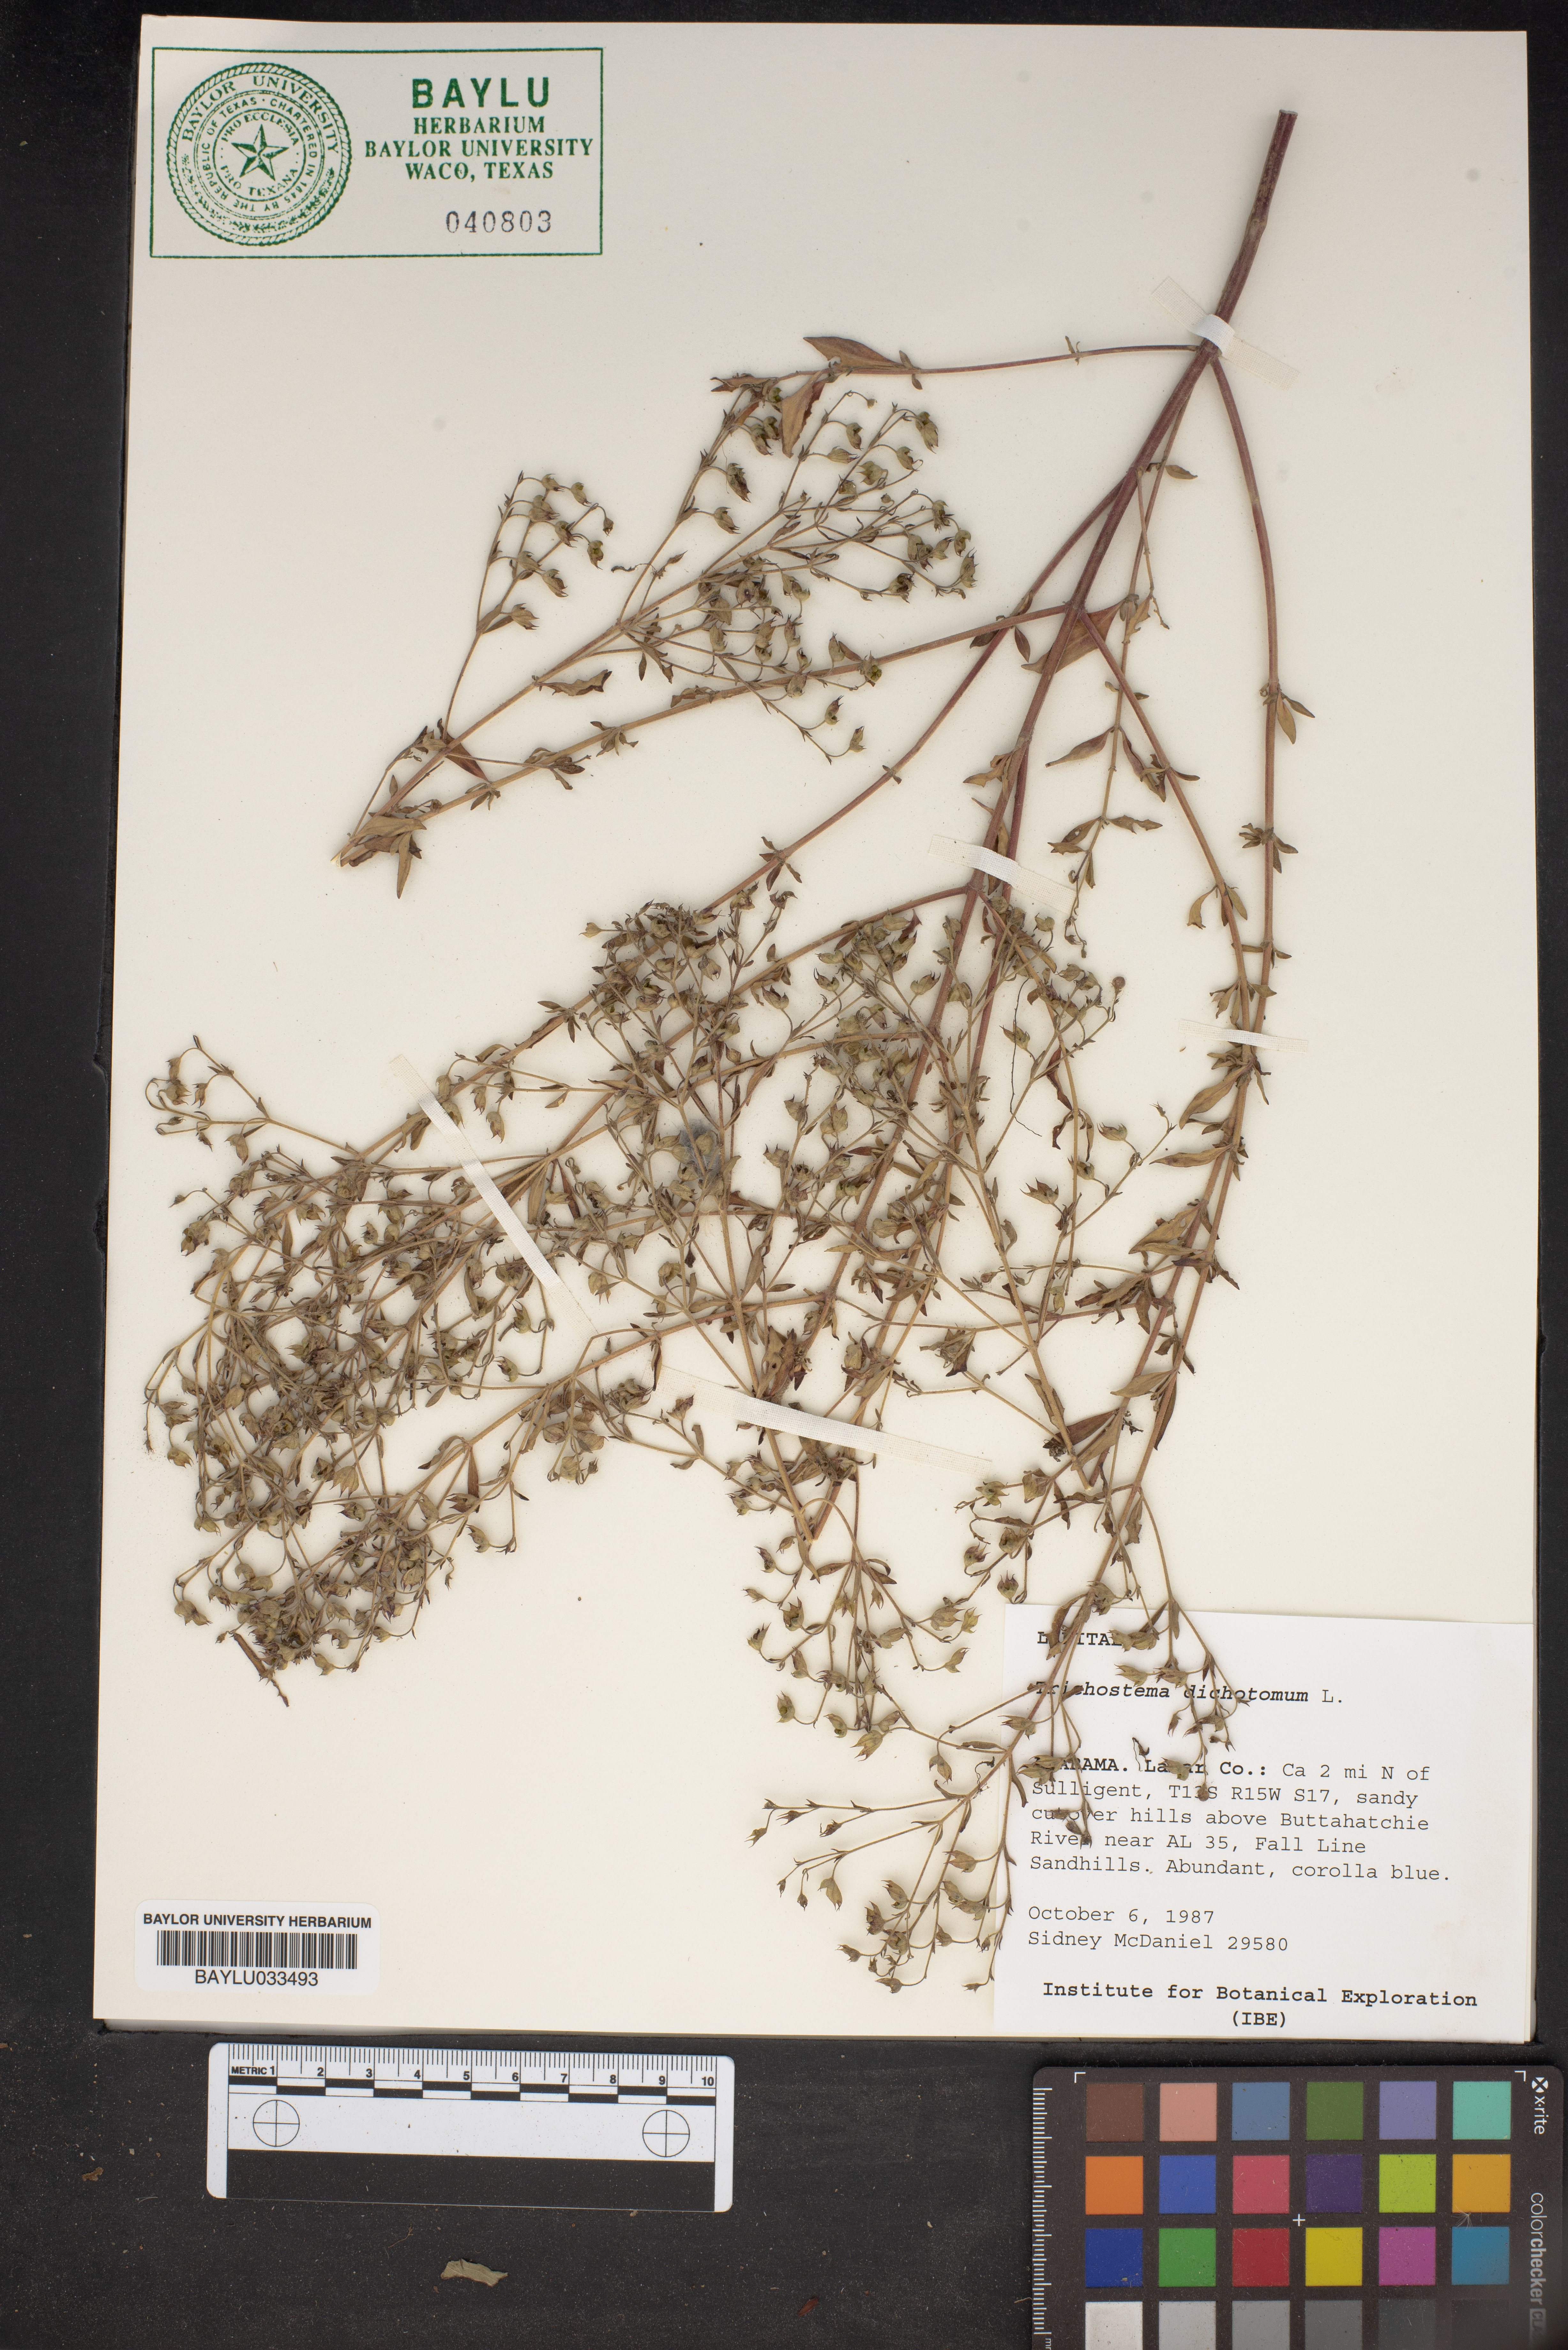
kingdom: Plantae
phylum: Tracheophyta
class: Magnoliopsida
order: Lamiales
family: Lamiaceae
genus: Trichostema
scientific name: Trichostema dichotomum
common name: Bastard pennyroyal
